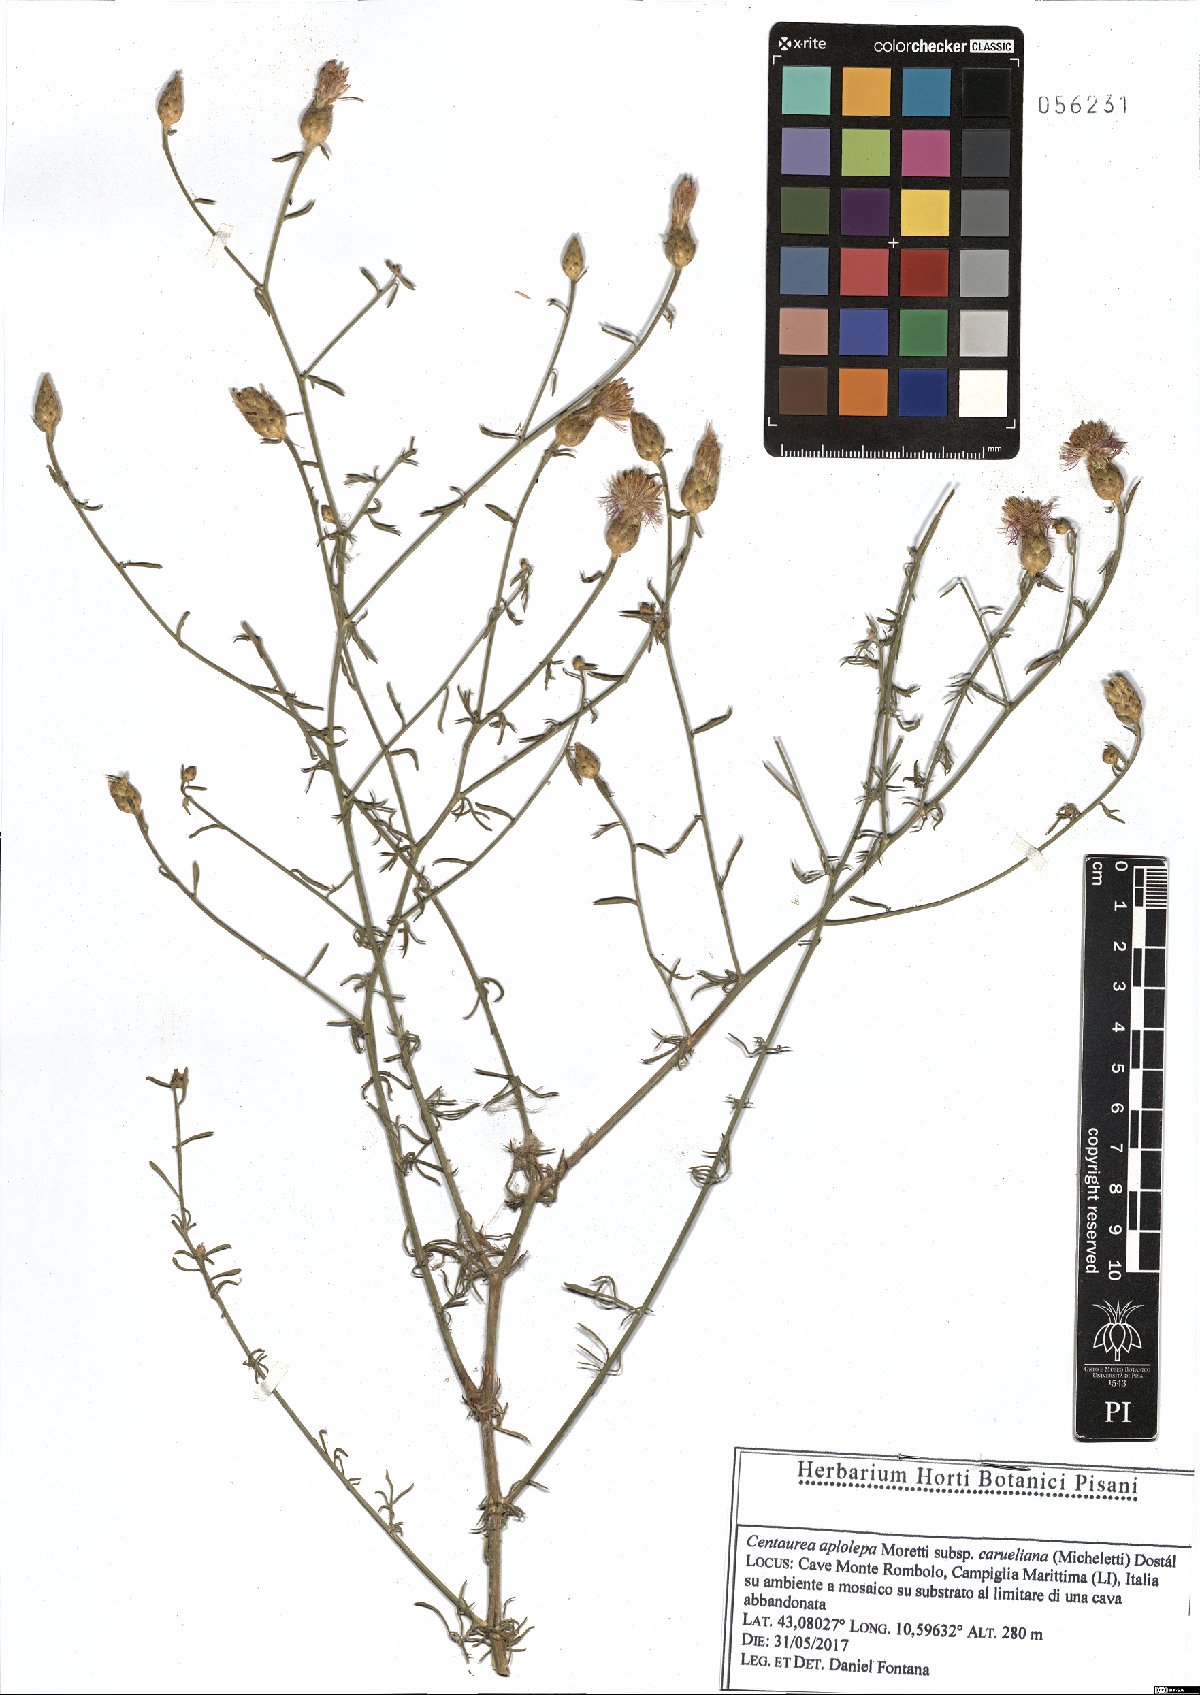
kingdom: Plantae
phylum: Tracheophyta
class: Magnoliopsida
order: Asterales
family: Asteraceae
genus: Centaurea
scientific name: Centaurea aplolepa
